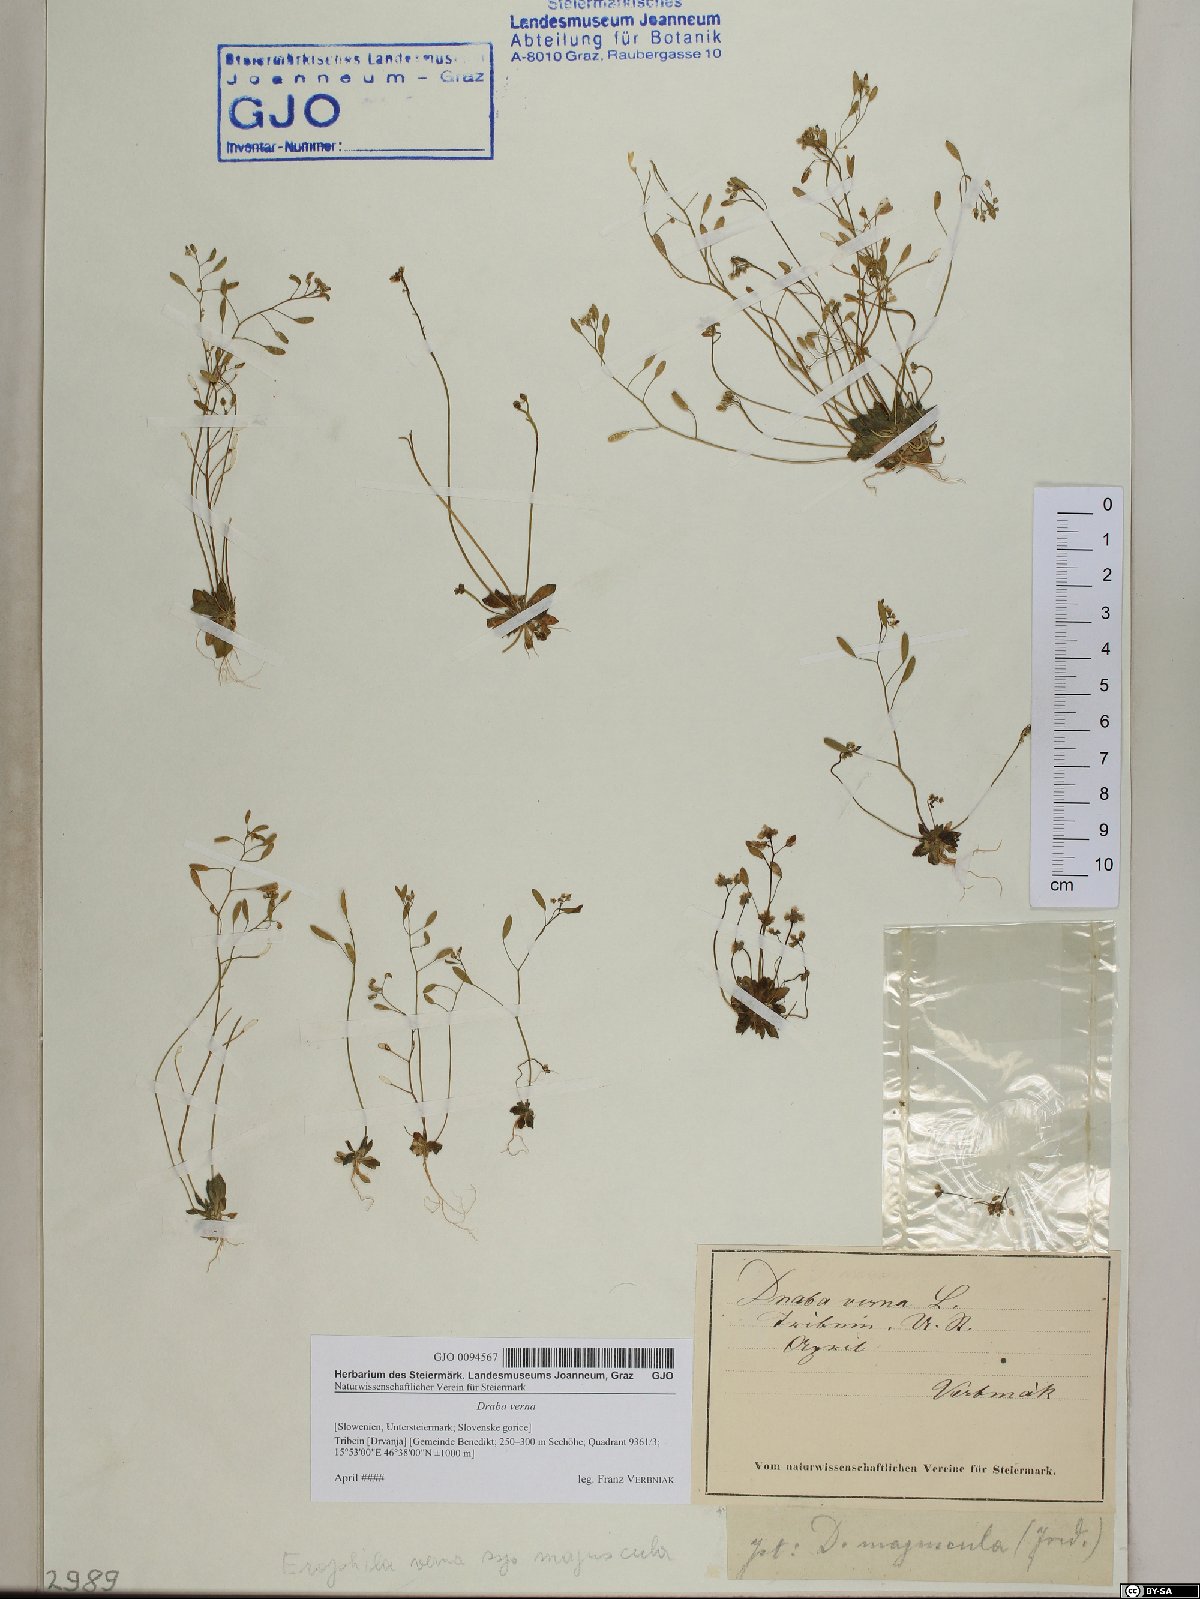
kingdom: Plantae
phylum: Tracheophyta
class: Magnoliopsida
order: Brassicales
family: Brassicaceae
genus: Draba
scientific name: Draba verna
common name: Spring draba
